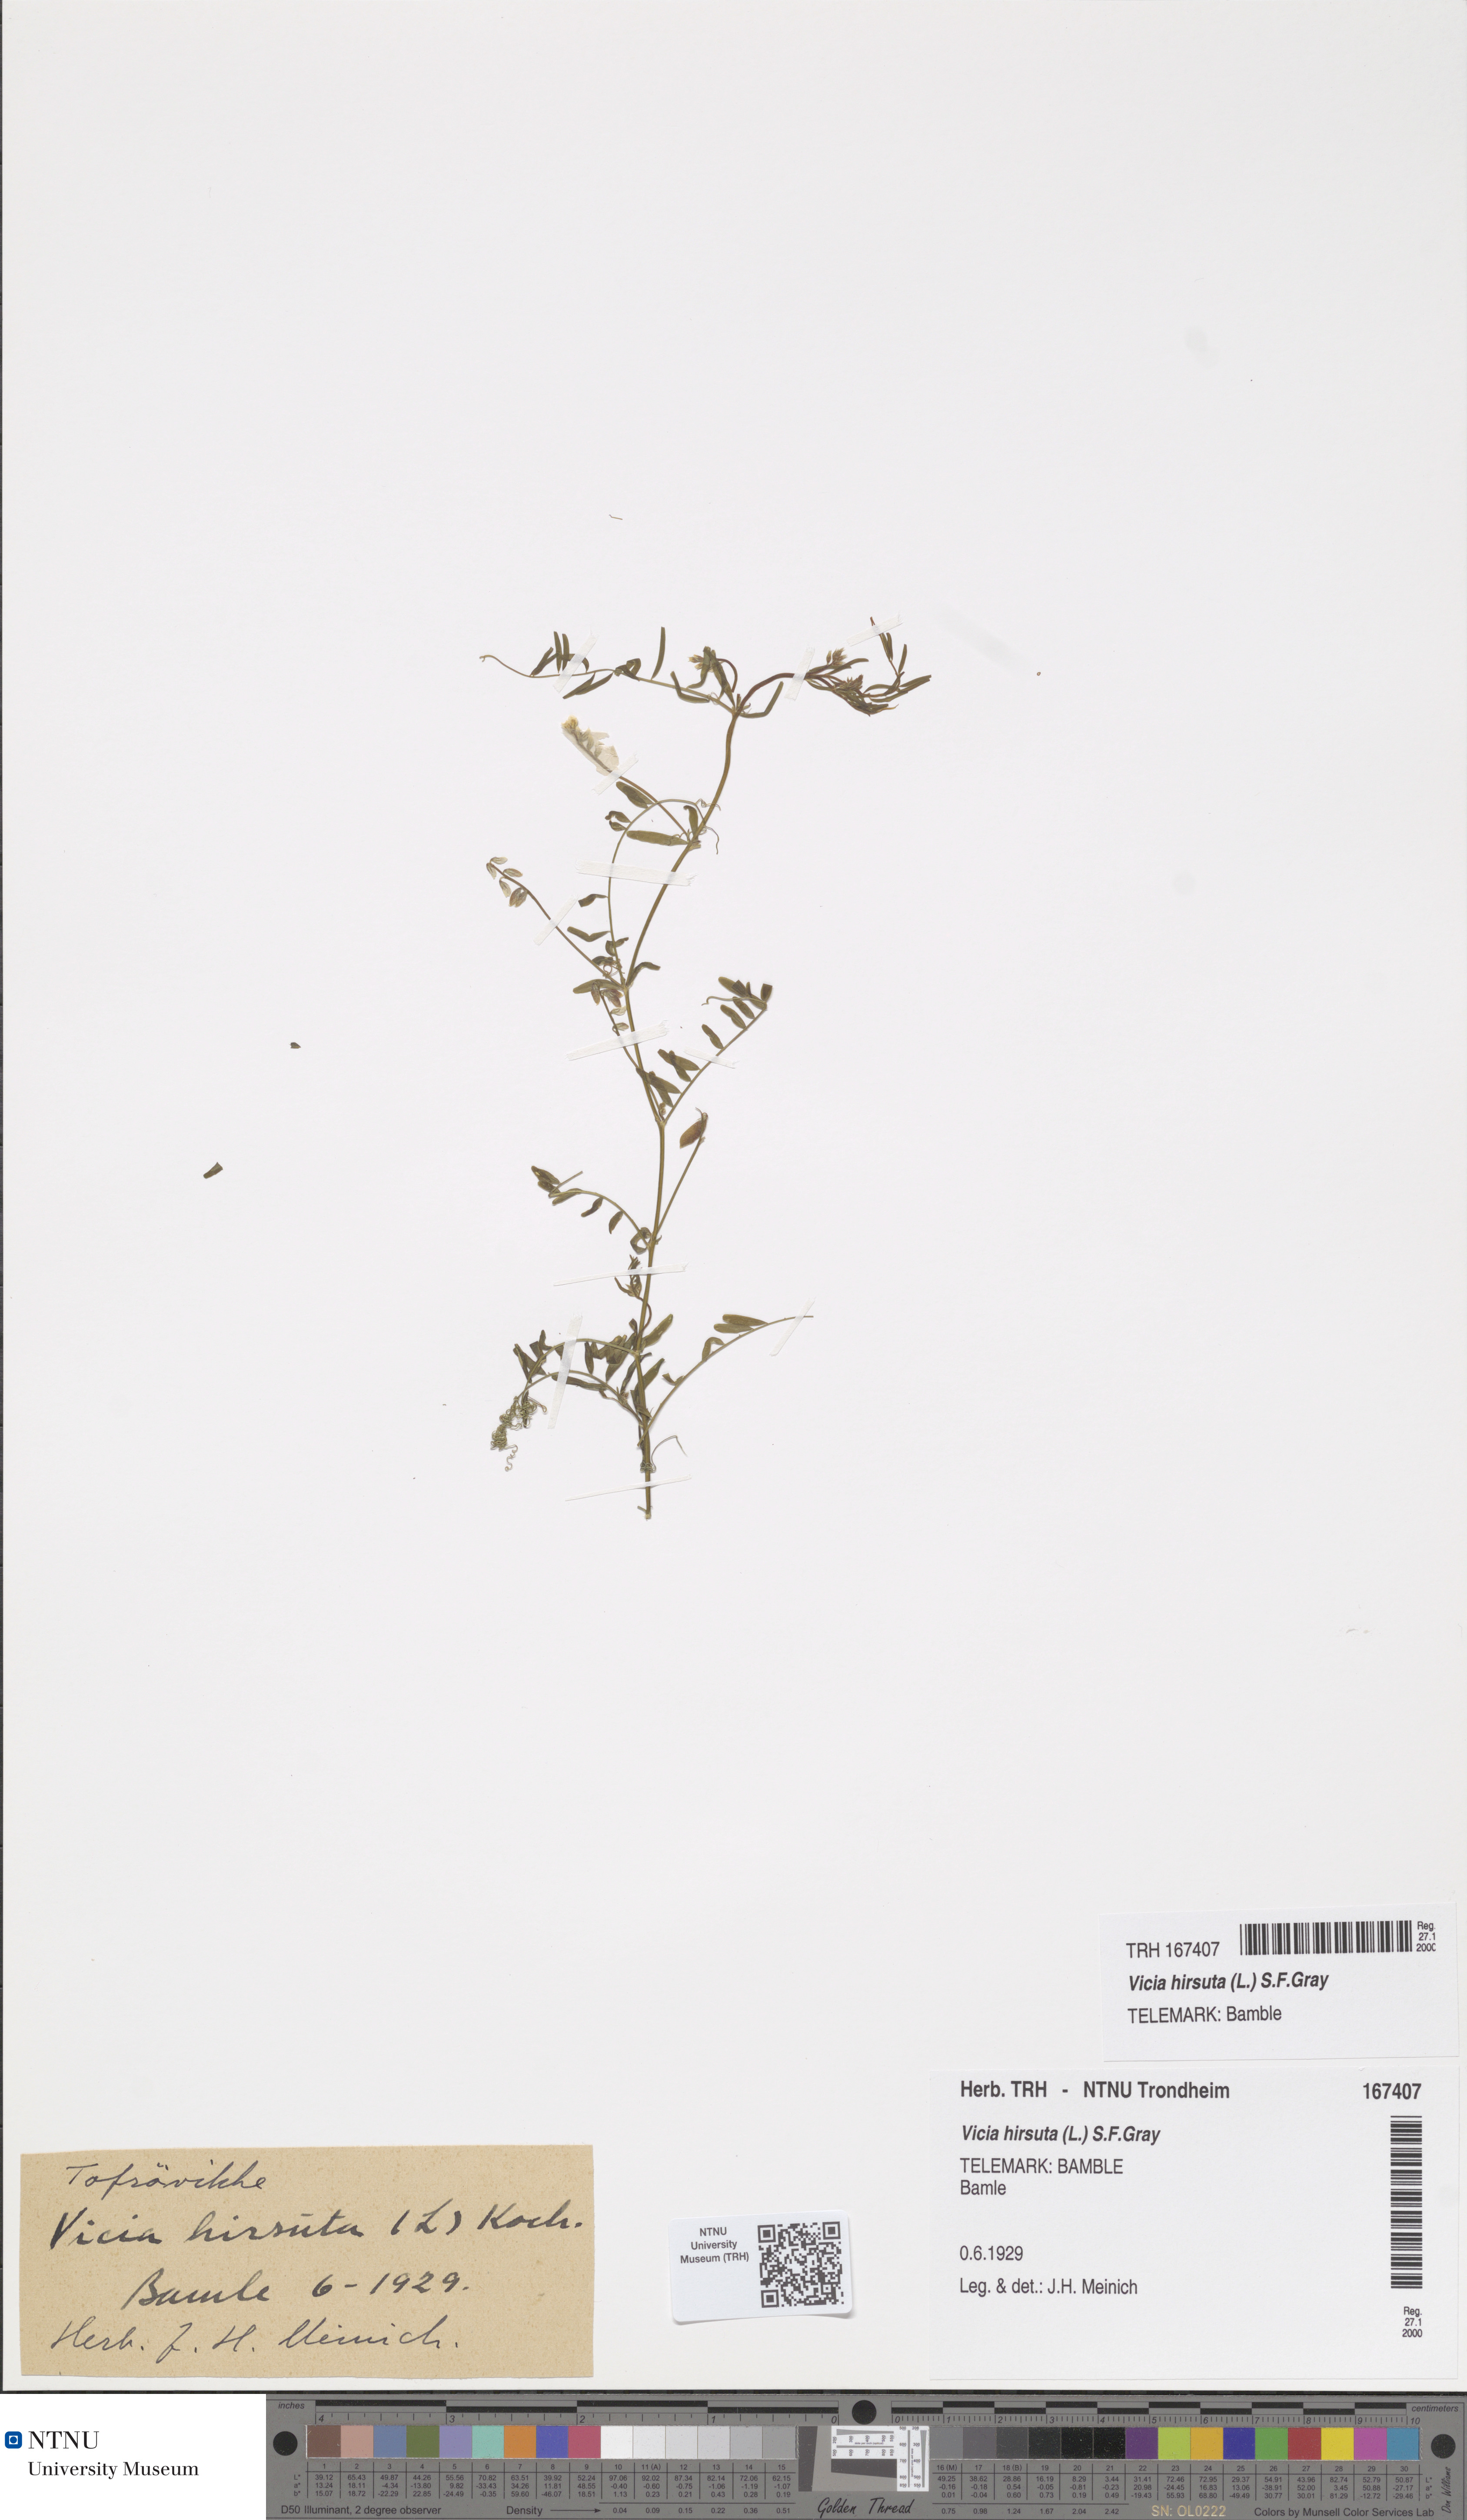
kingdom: Plantae
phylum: Tracheophyta
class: Magnoliopsida
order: Fabales
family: Fabaceae
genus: Vicia
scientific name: Vicia hirsuta
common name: Tiny vetch
